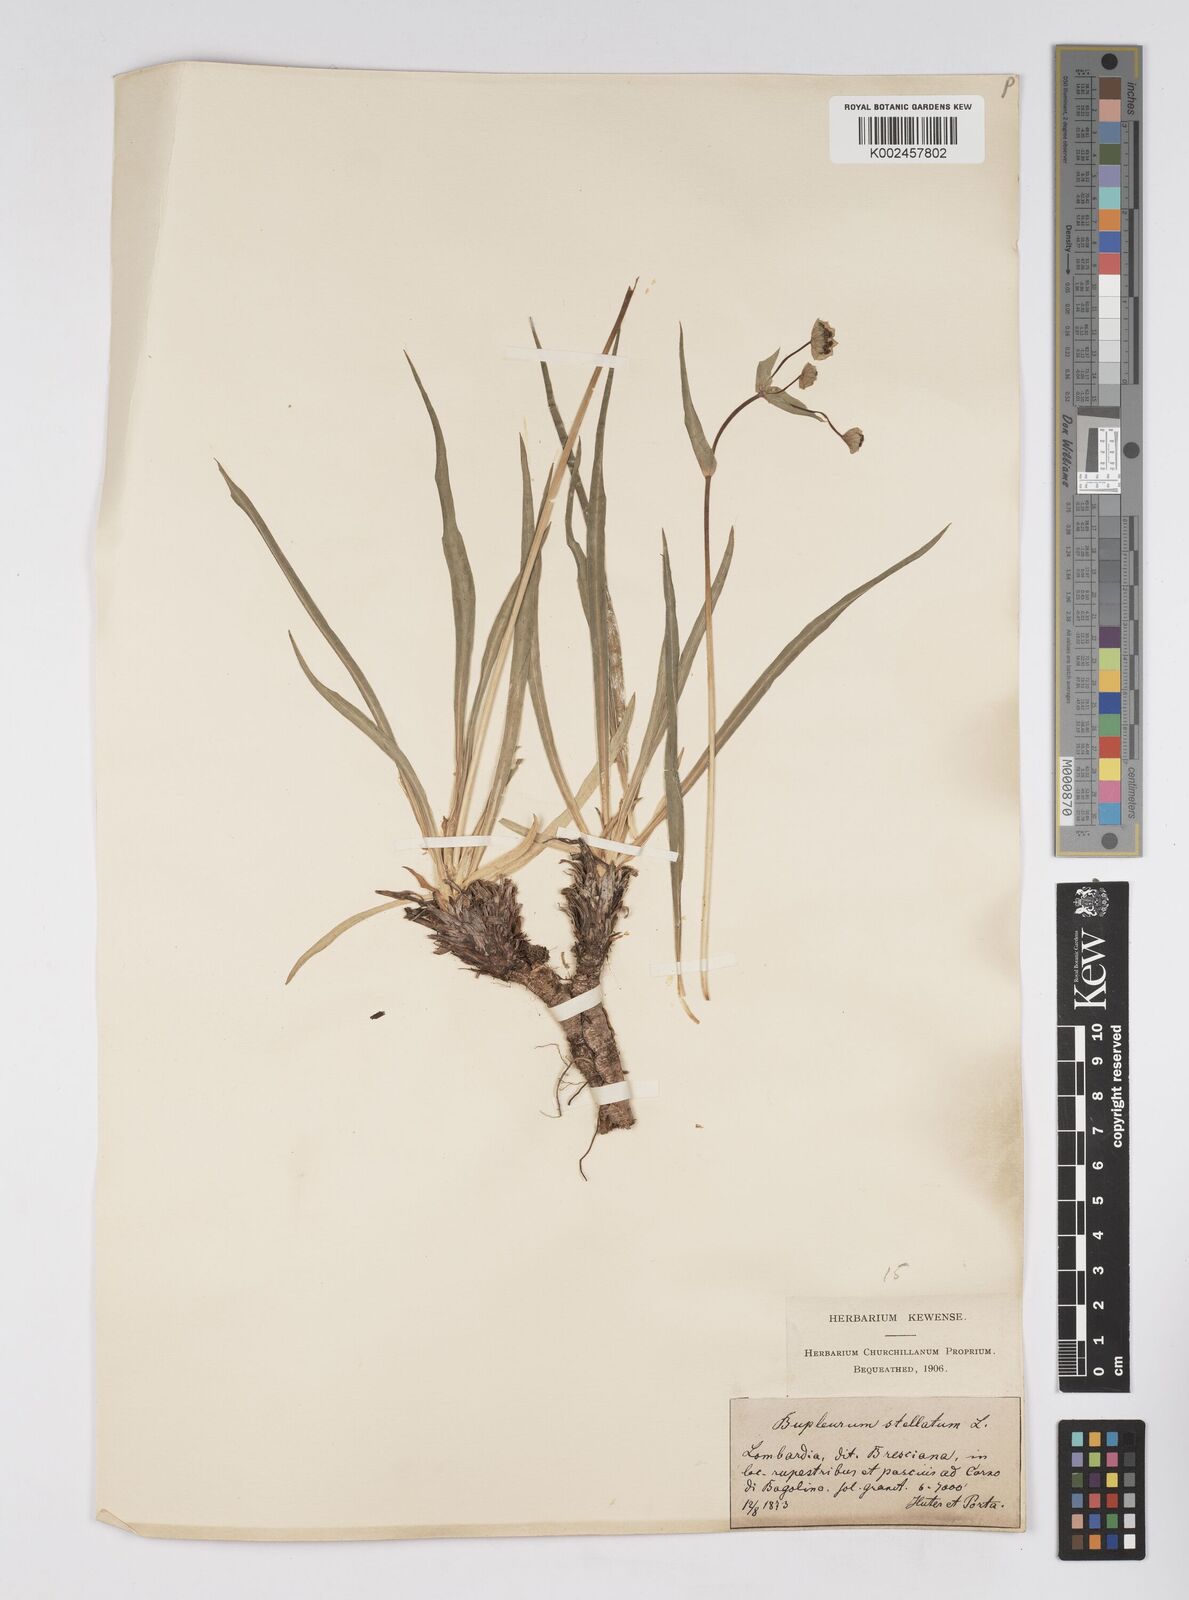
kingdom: Plantae
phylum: Tracheophyta
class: Magnoliopsida
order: Apiales
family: Apiaceae
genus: Bupleurum
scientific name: Bupleurum stellatum
